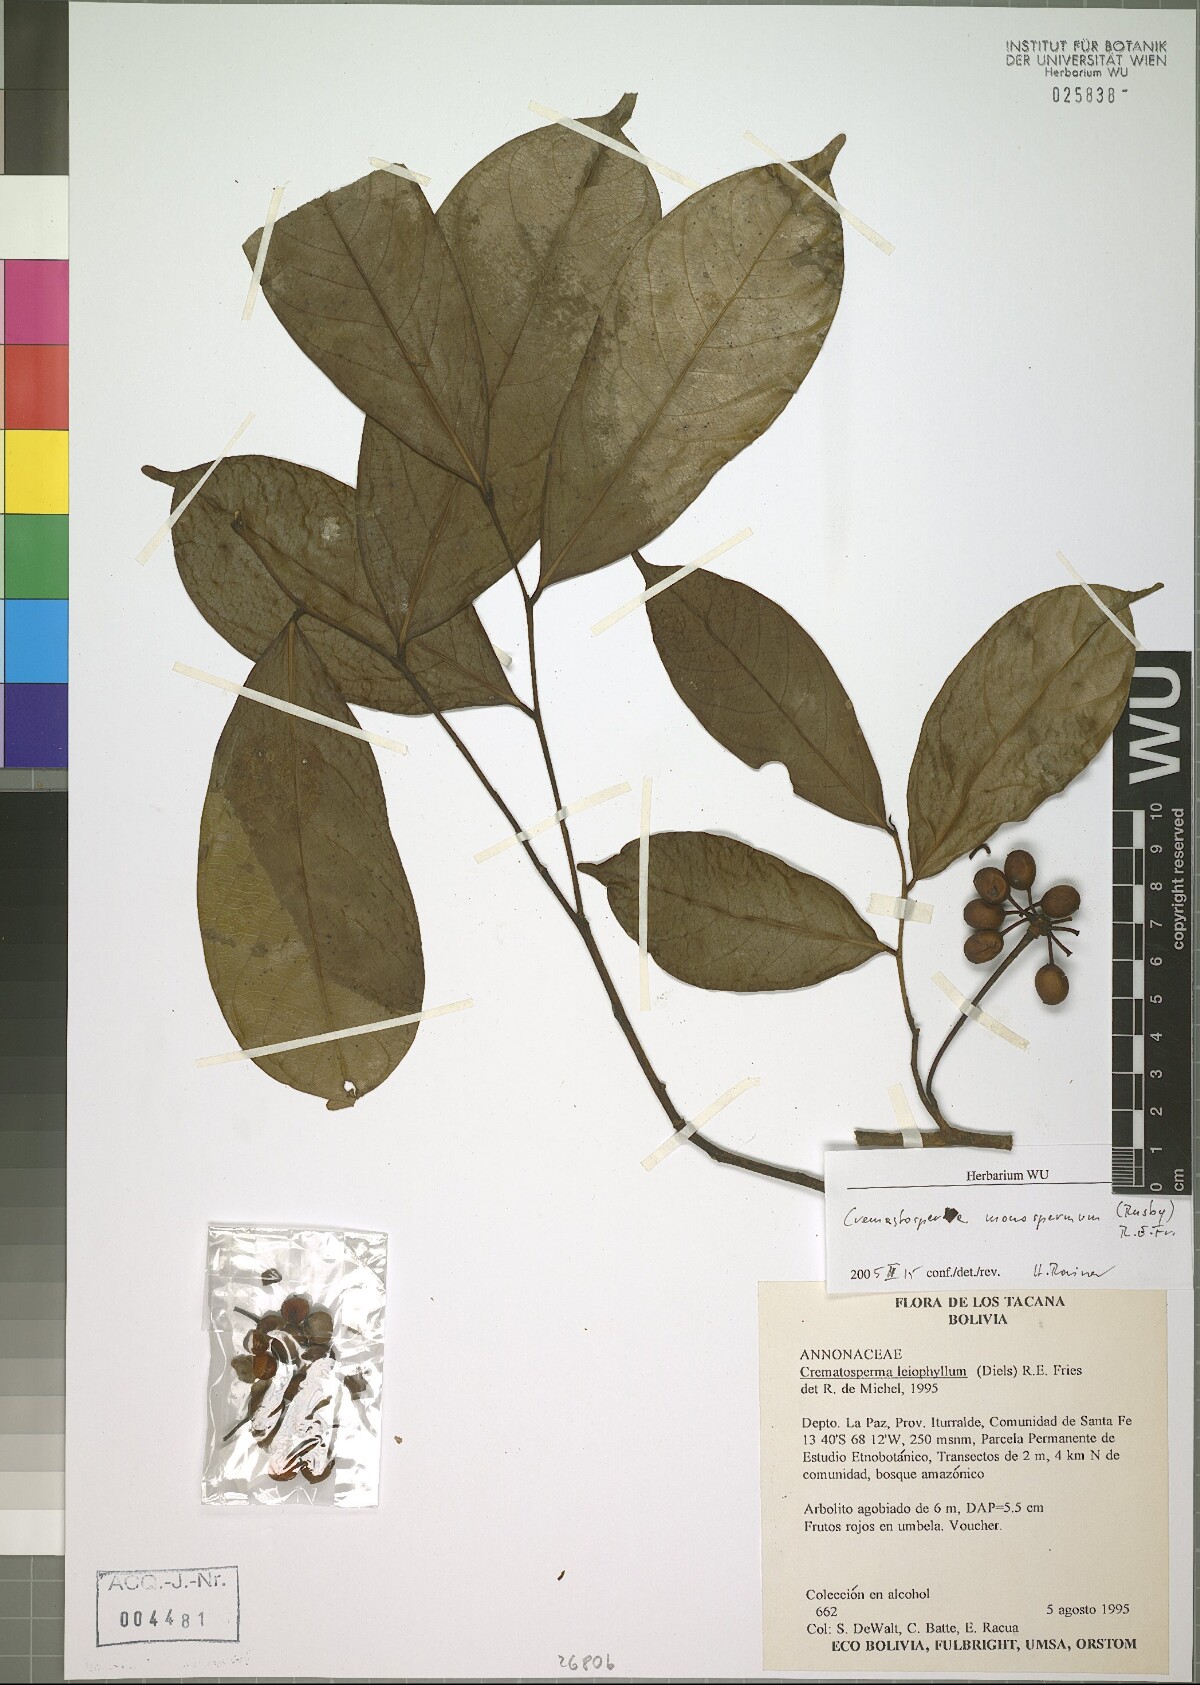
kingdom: Plantae
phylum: Tracheophyta
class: Magnoliopsida
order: Magnoliales
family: Annonaceae
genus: Cremastosperma
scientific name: Cremastosperma monospermum
